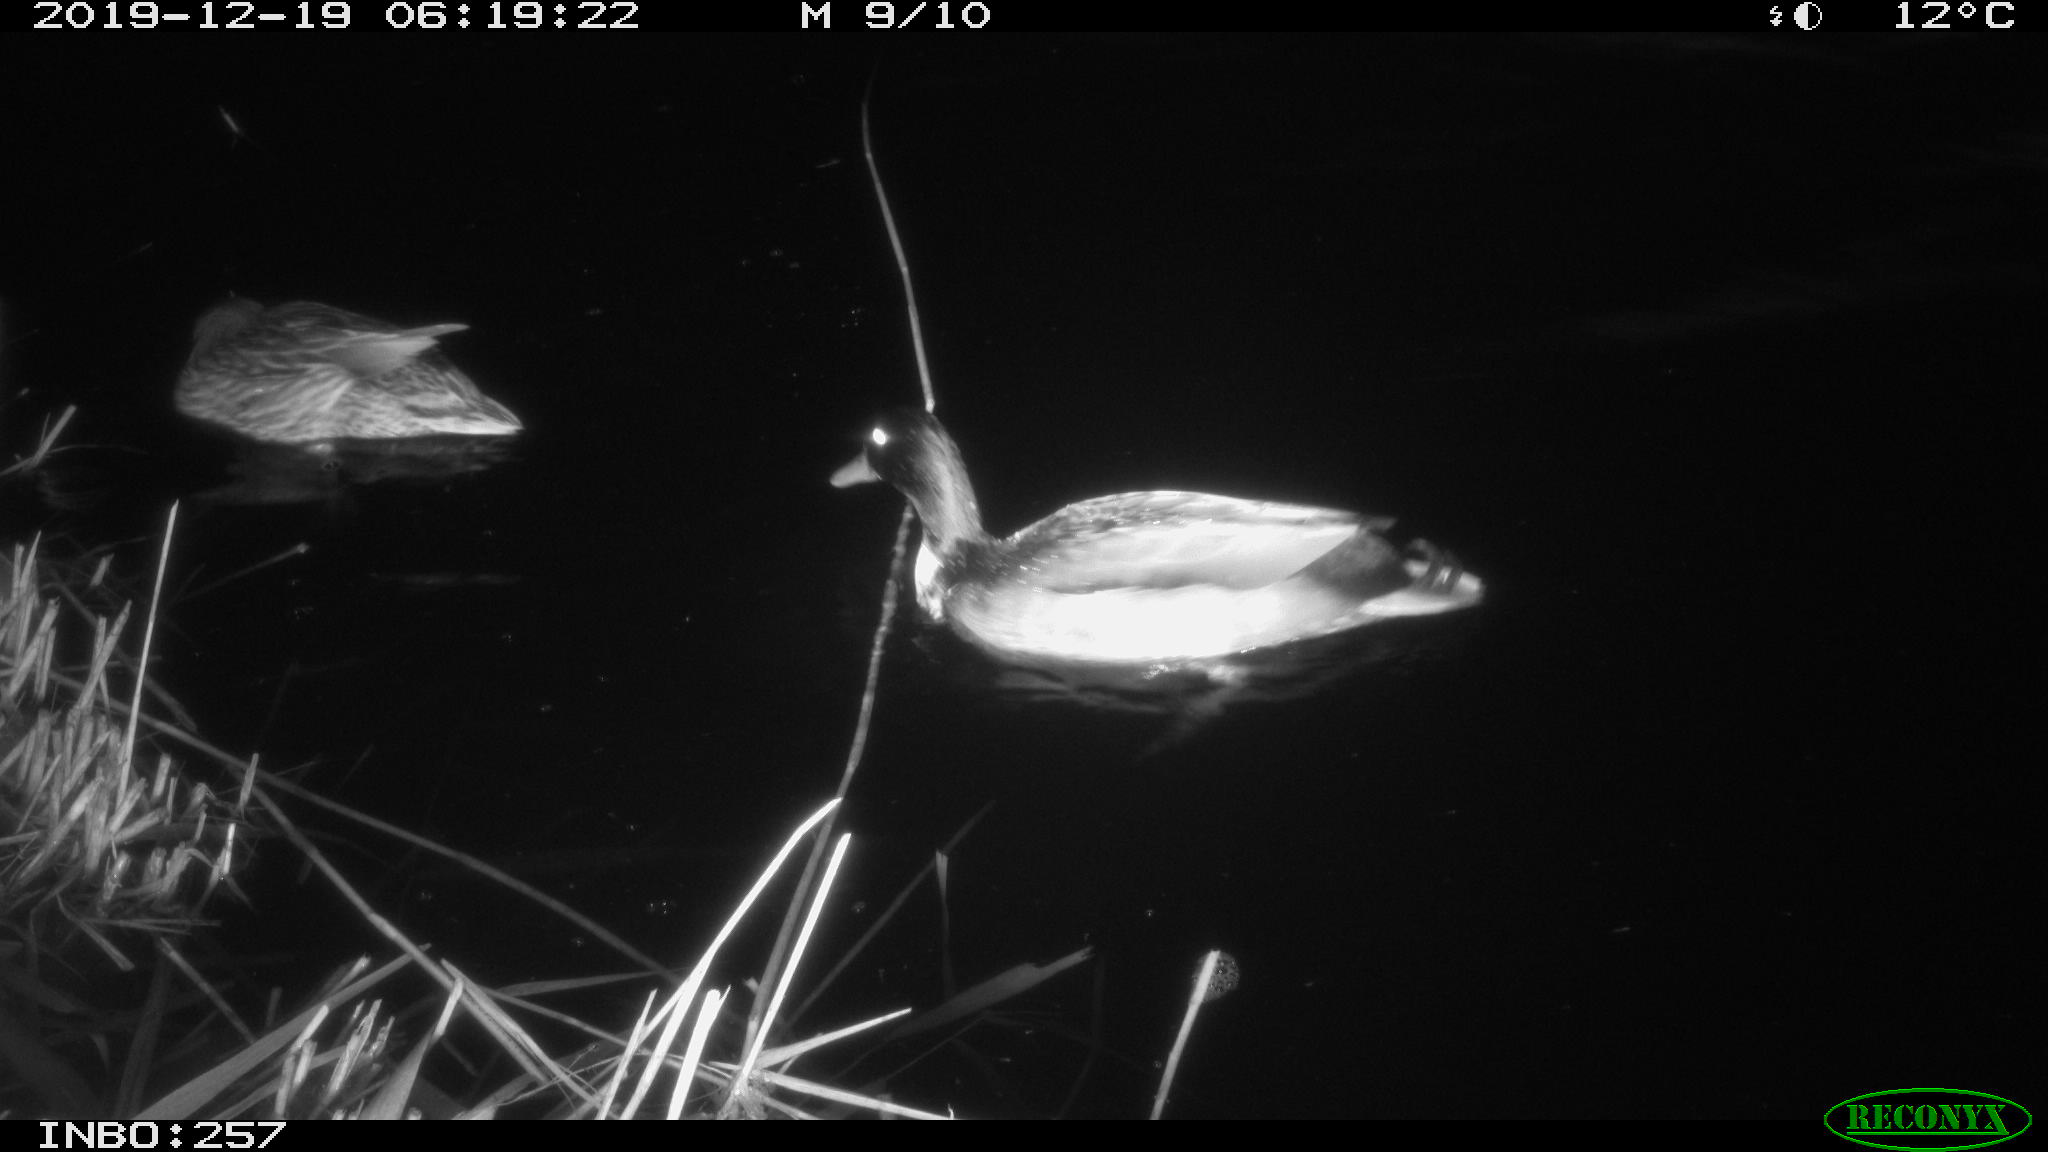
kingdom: Animalia
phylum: Chordata
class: Aves
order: Anseriformes
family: Anatidae
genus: Anas
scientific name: Anas platyrhynchos
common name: Mallard
